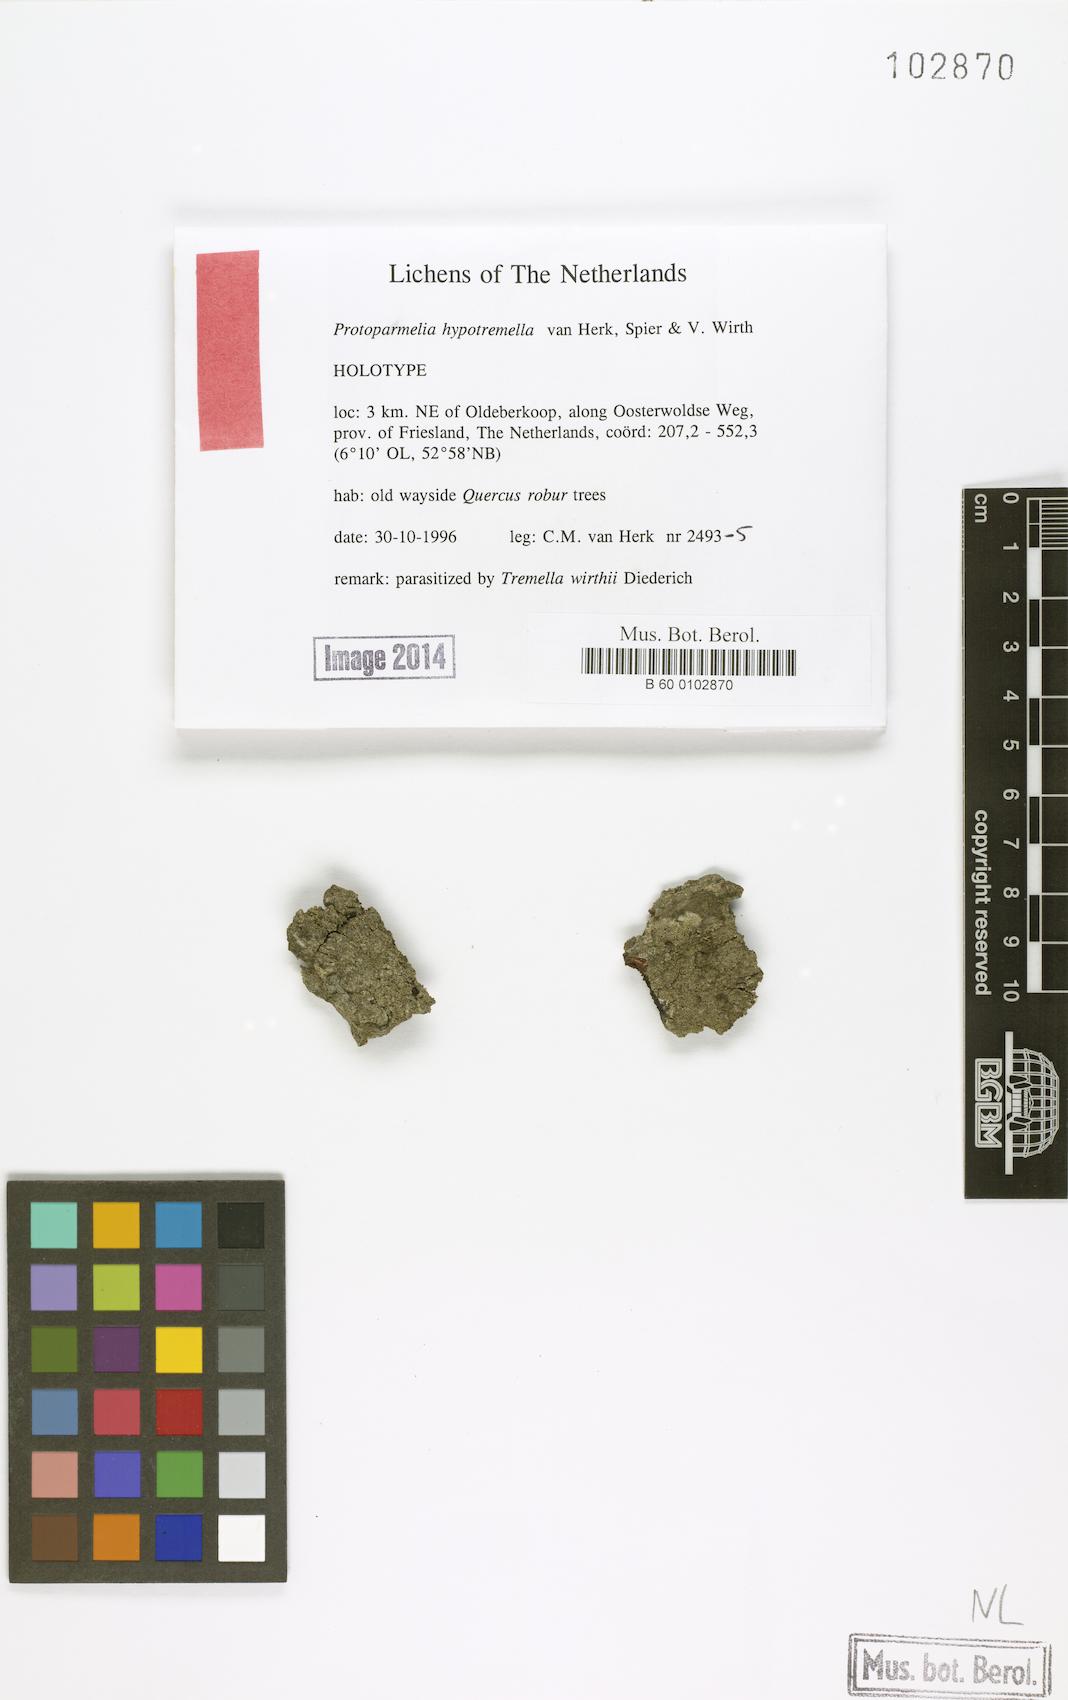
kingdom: Fungi
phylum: Ascomycota
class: Lecanoromycetes
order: Lecanorales
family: Parmeliaceae
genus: Protoparmelia
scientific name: Protoparmelia hypotremella
